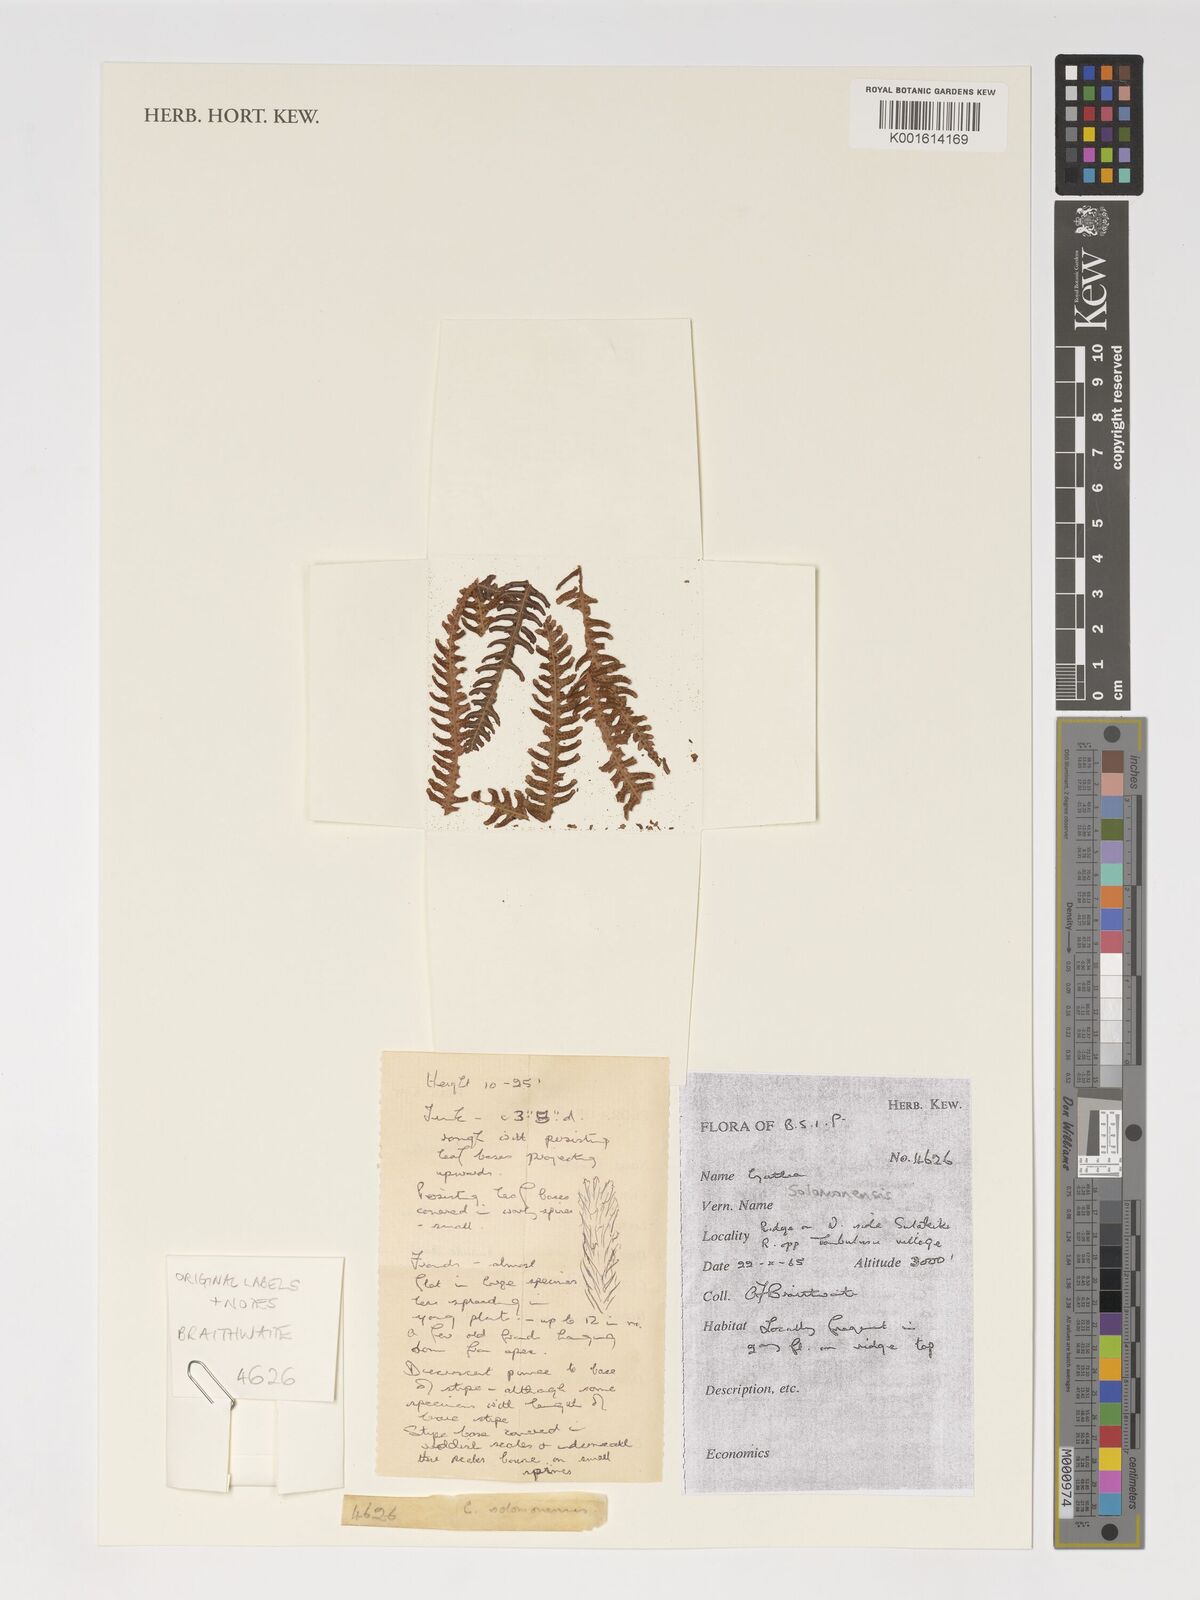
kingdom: Plantae
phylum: Tracheophyta
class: Polypodiopsida
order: Cyatheales
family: Cyatheaceae
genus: Alsophila
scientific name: Alsophila solomonensis
